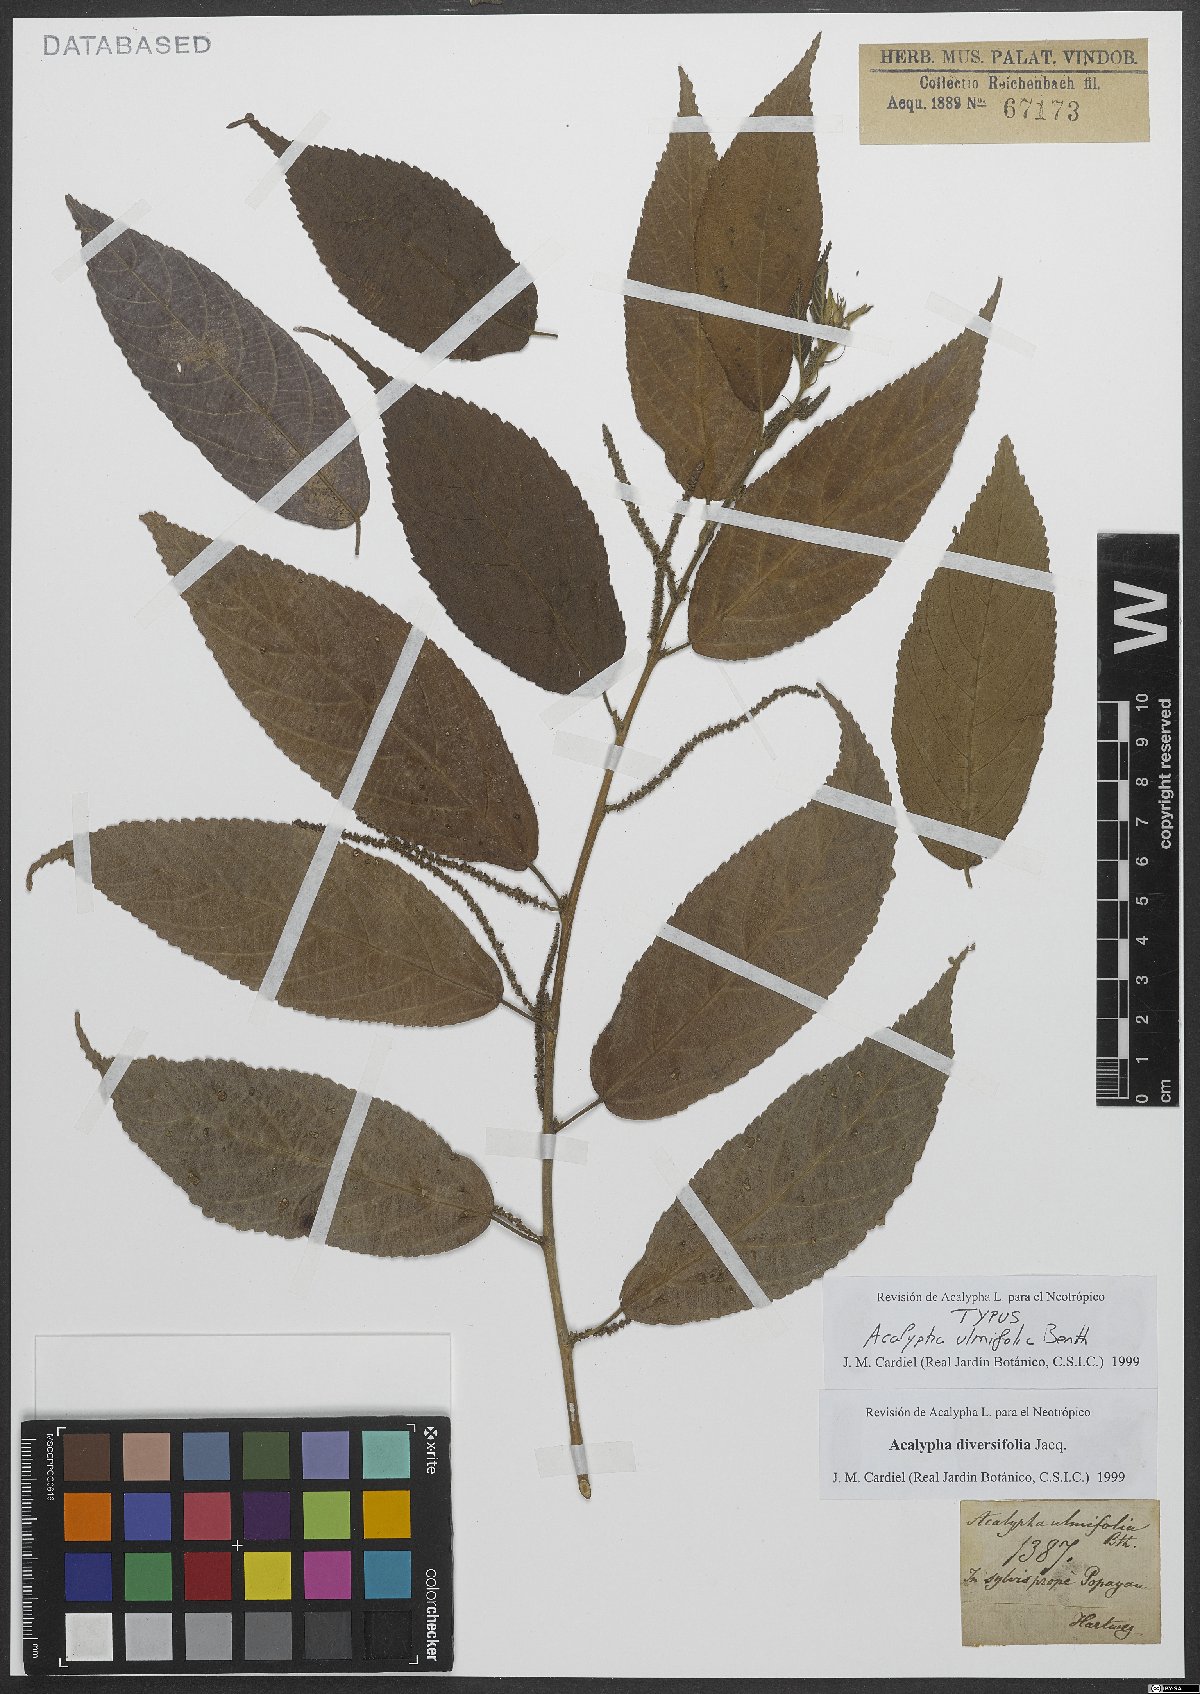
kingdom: Plantae
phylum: Tracheophyta
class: Magnoliopsida
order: Malpighiales
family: Euphorbiaceae
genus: Acalypha
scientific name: Acalypha diversifolia
